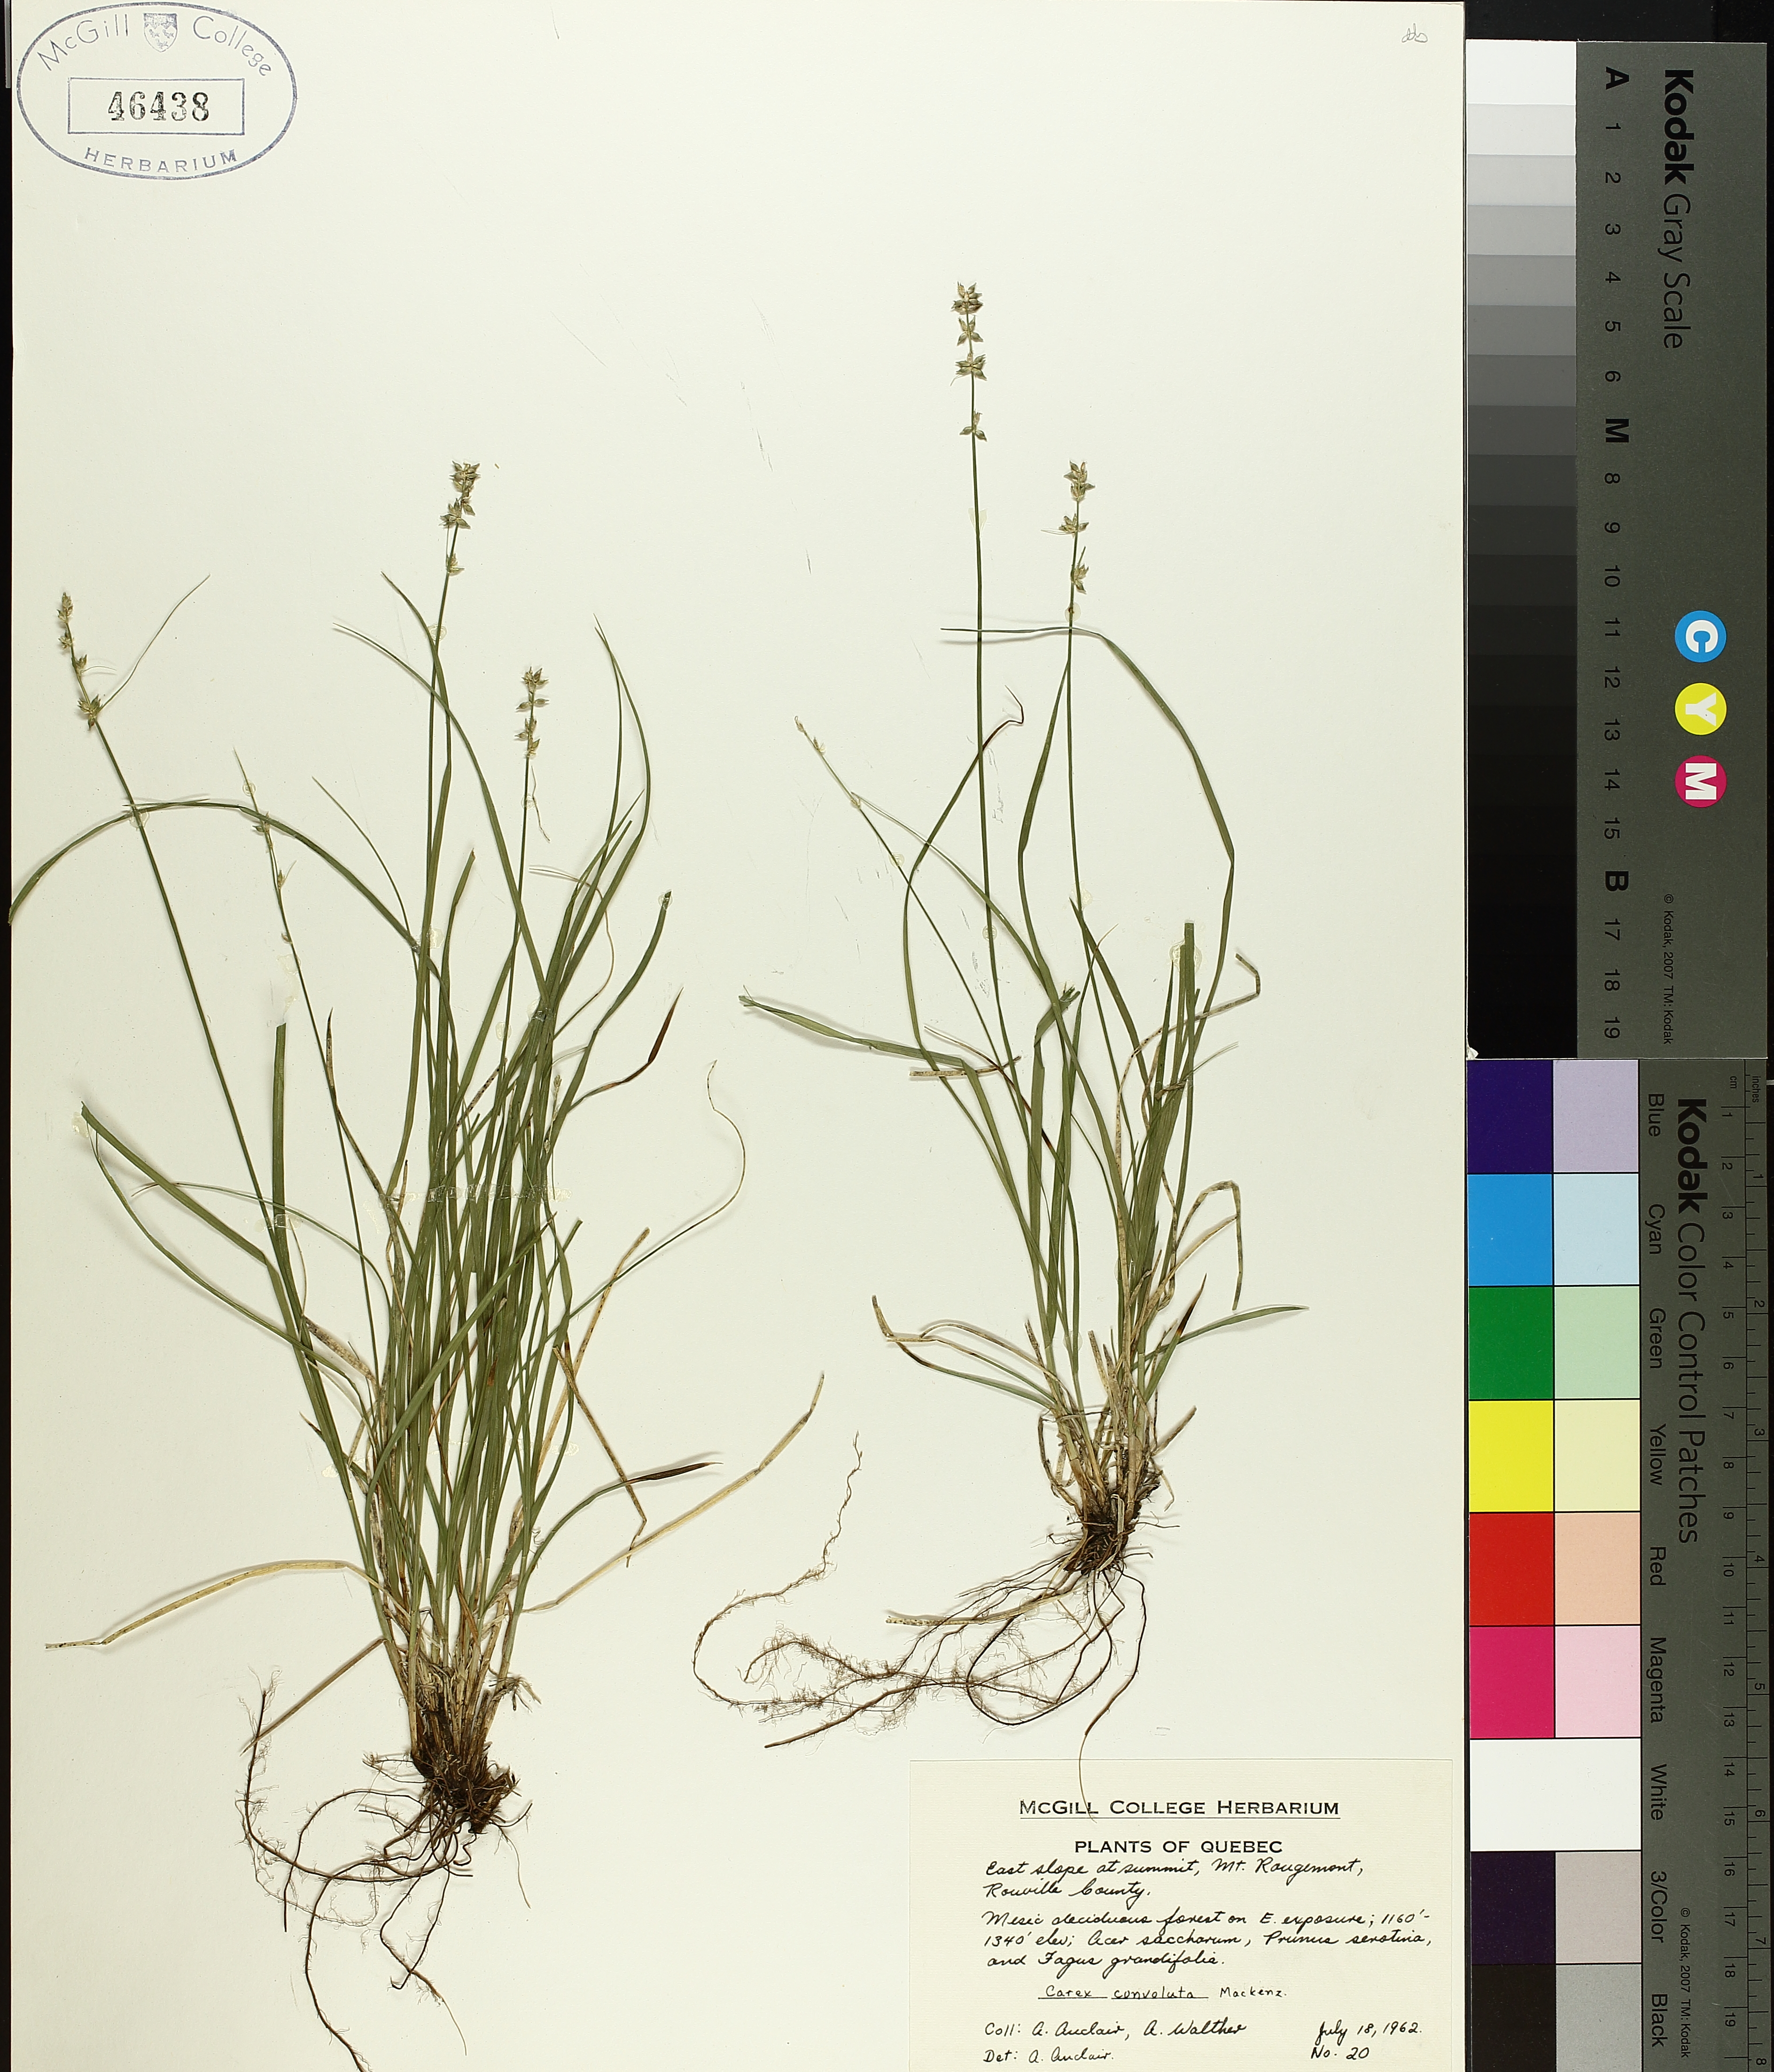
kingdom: Plantae
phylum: Tracheophyta
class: Liliopsida
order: Poales
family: Cyperaceae
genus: Carex
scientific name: Carex rosea
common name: Curly-styled wood sedge
